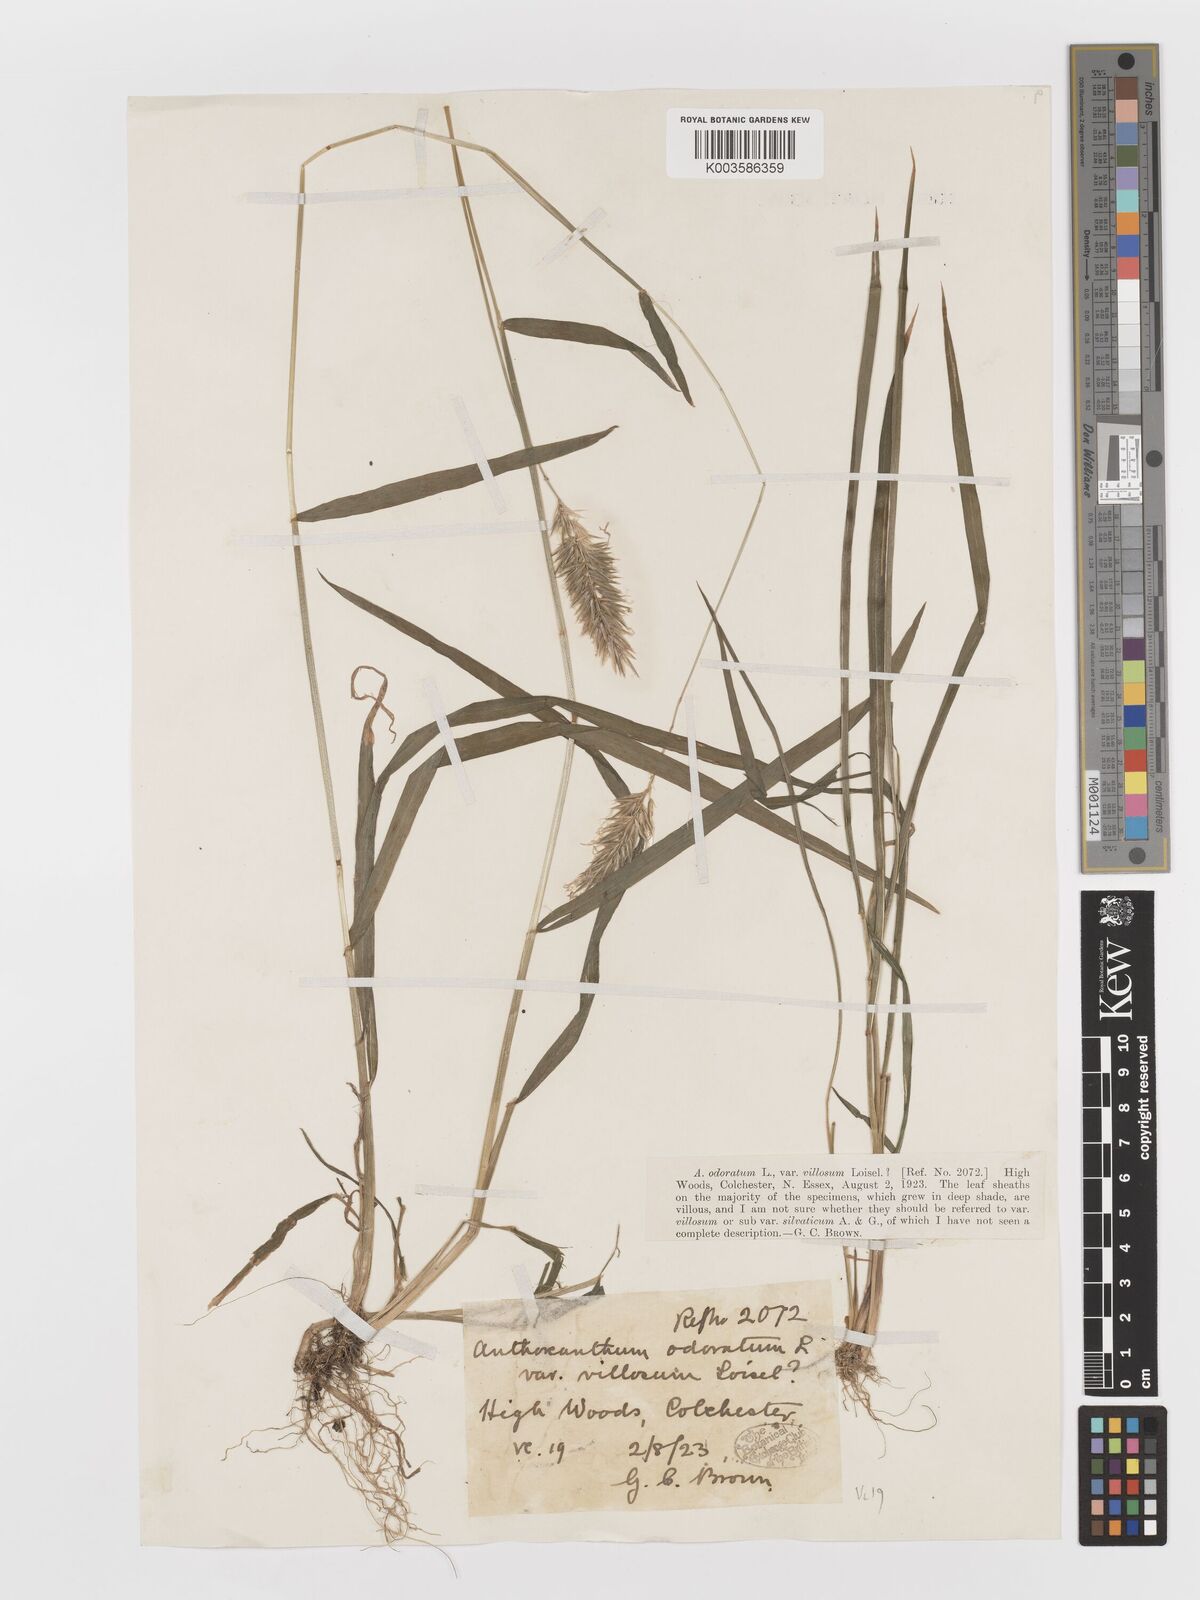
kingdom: Plantae
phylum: Tracheophyta
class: Liliopsida
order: Poales
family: Poaceae
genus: Anthoxanthum
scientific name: Anthoxanthum odoratum
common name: Sweet vernalgrass
